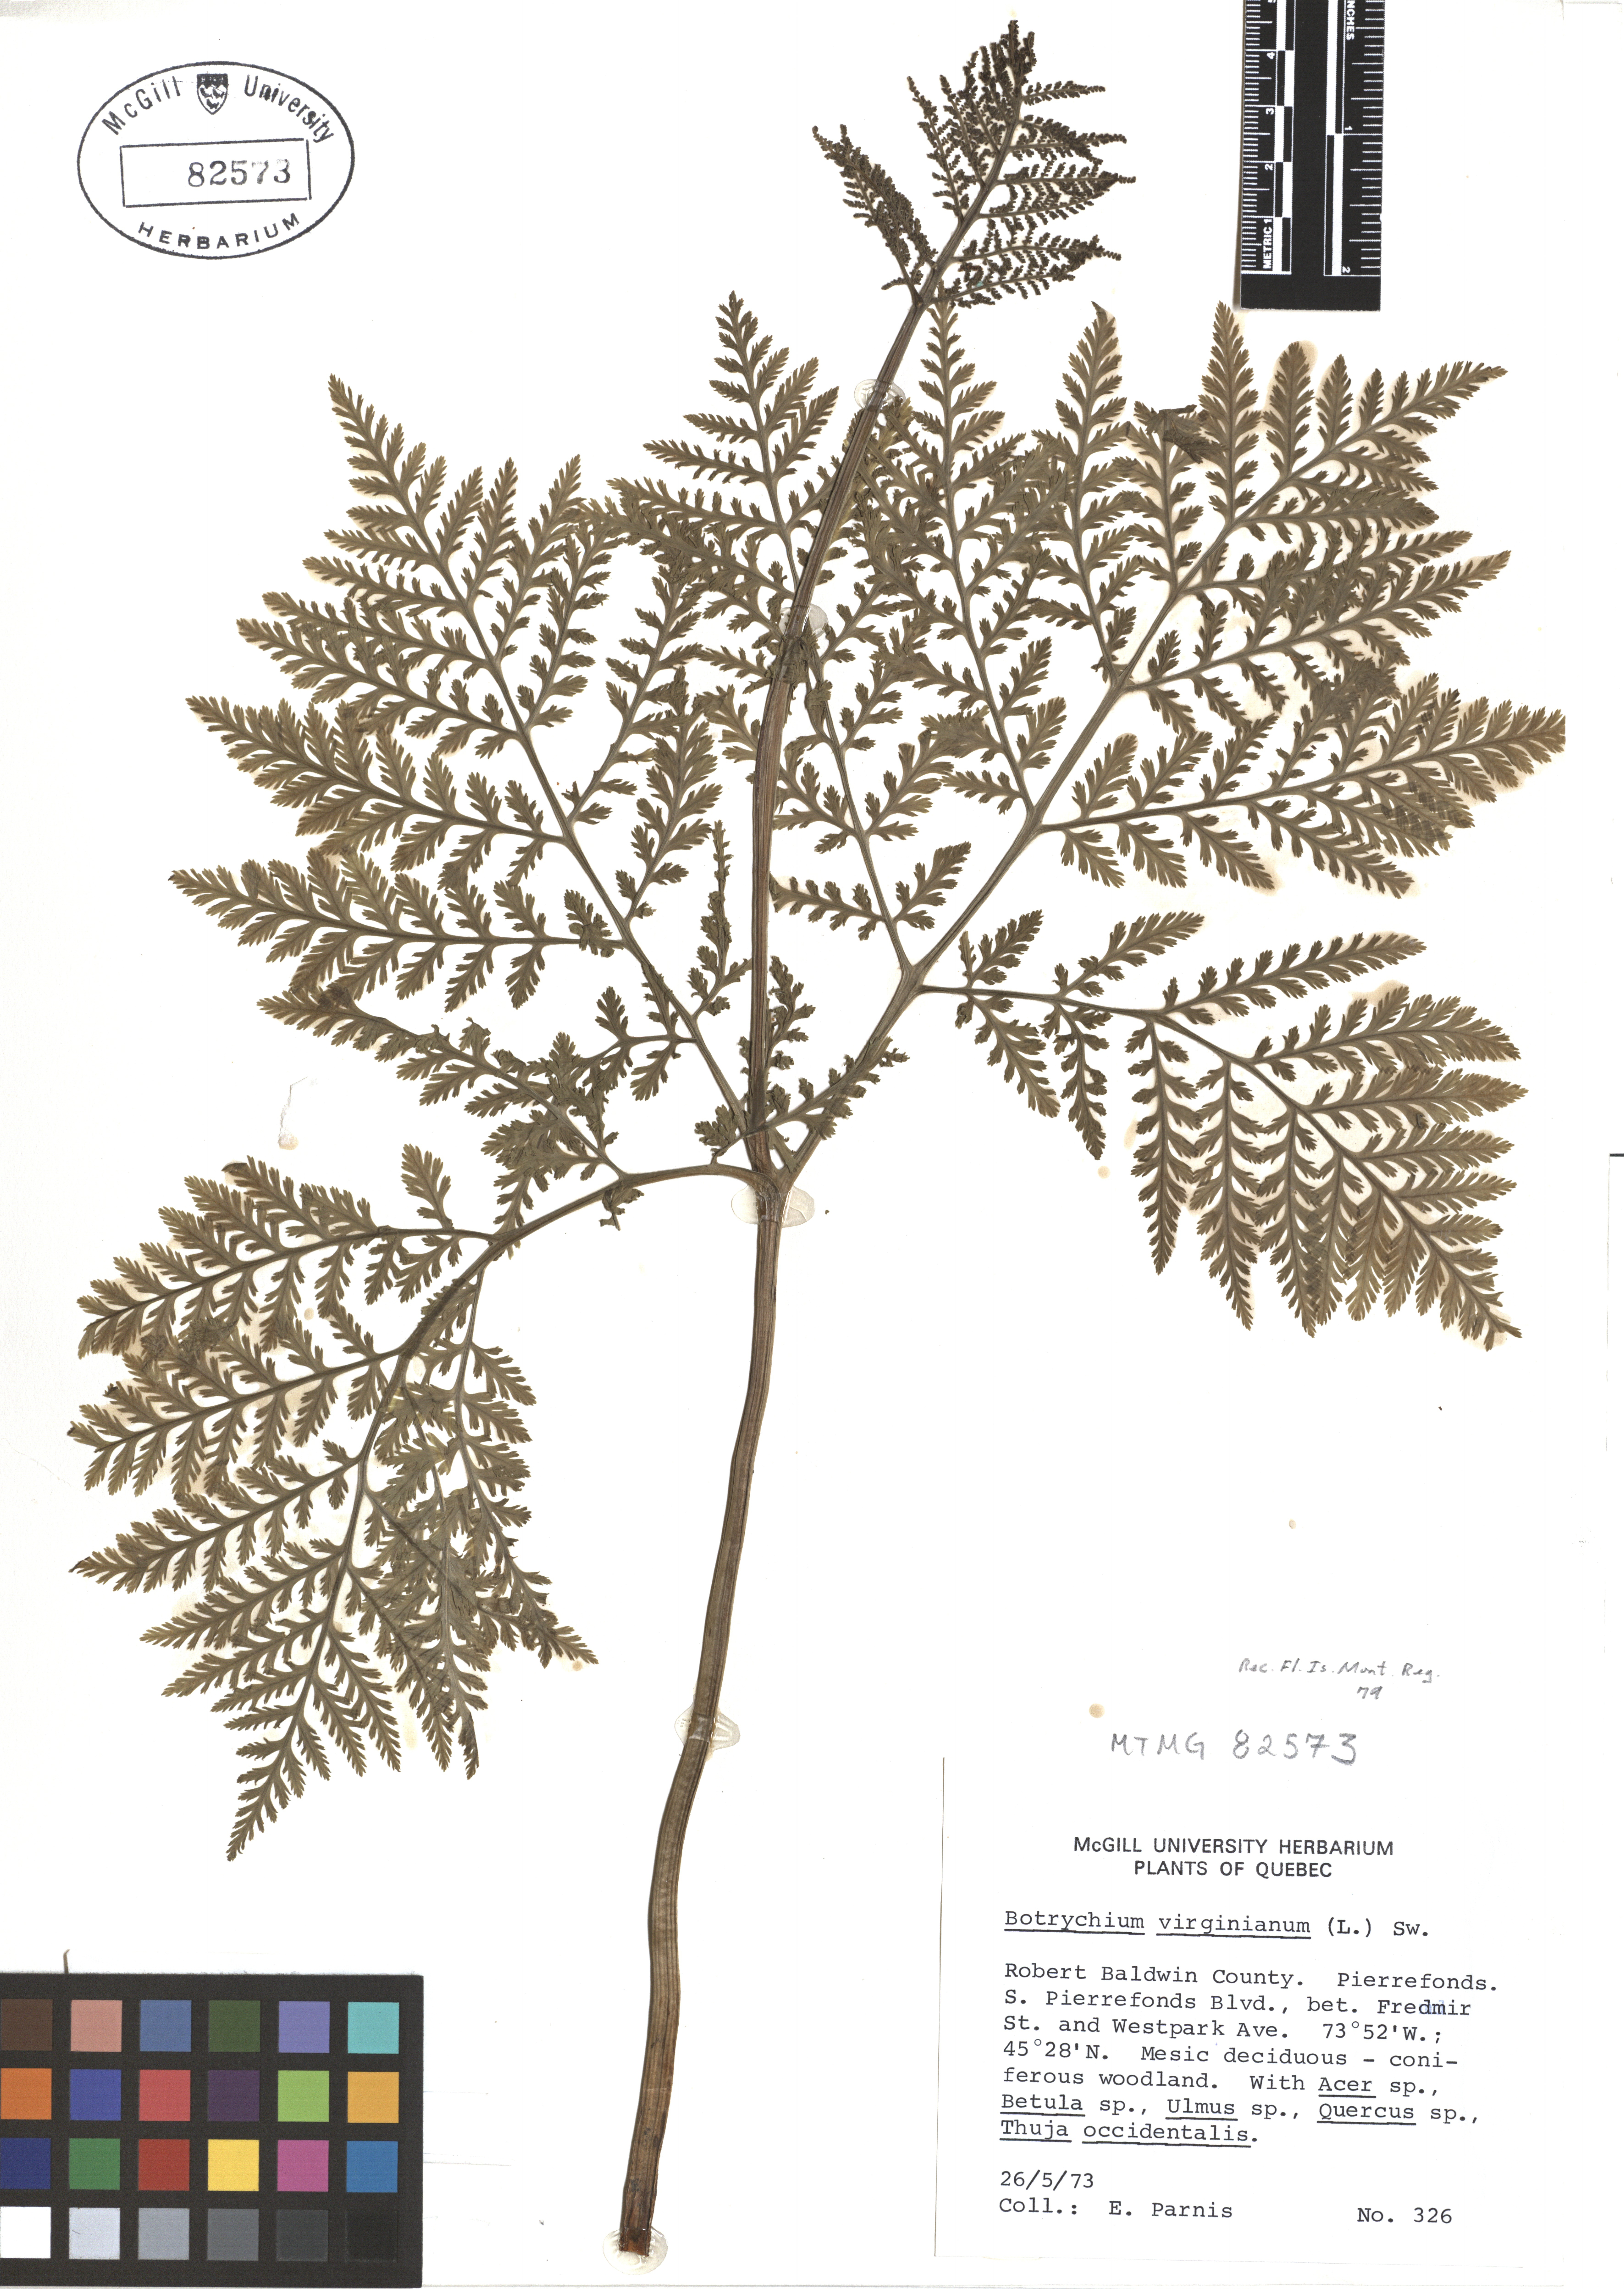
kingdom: Plantae
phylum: Tracheophyta
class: Polypodiopsida
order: Ophioglossales
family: Ophioglossaceae
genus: Botrypus
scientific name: Botrypus virginianus
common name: Common grapefern
